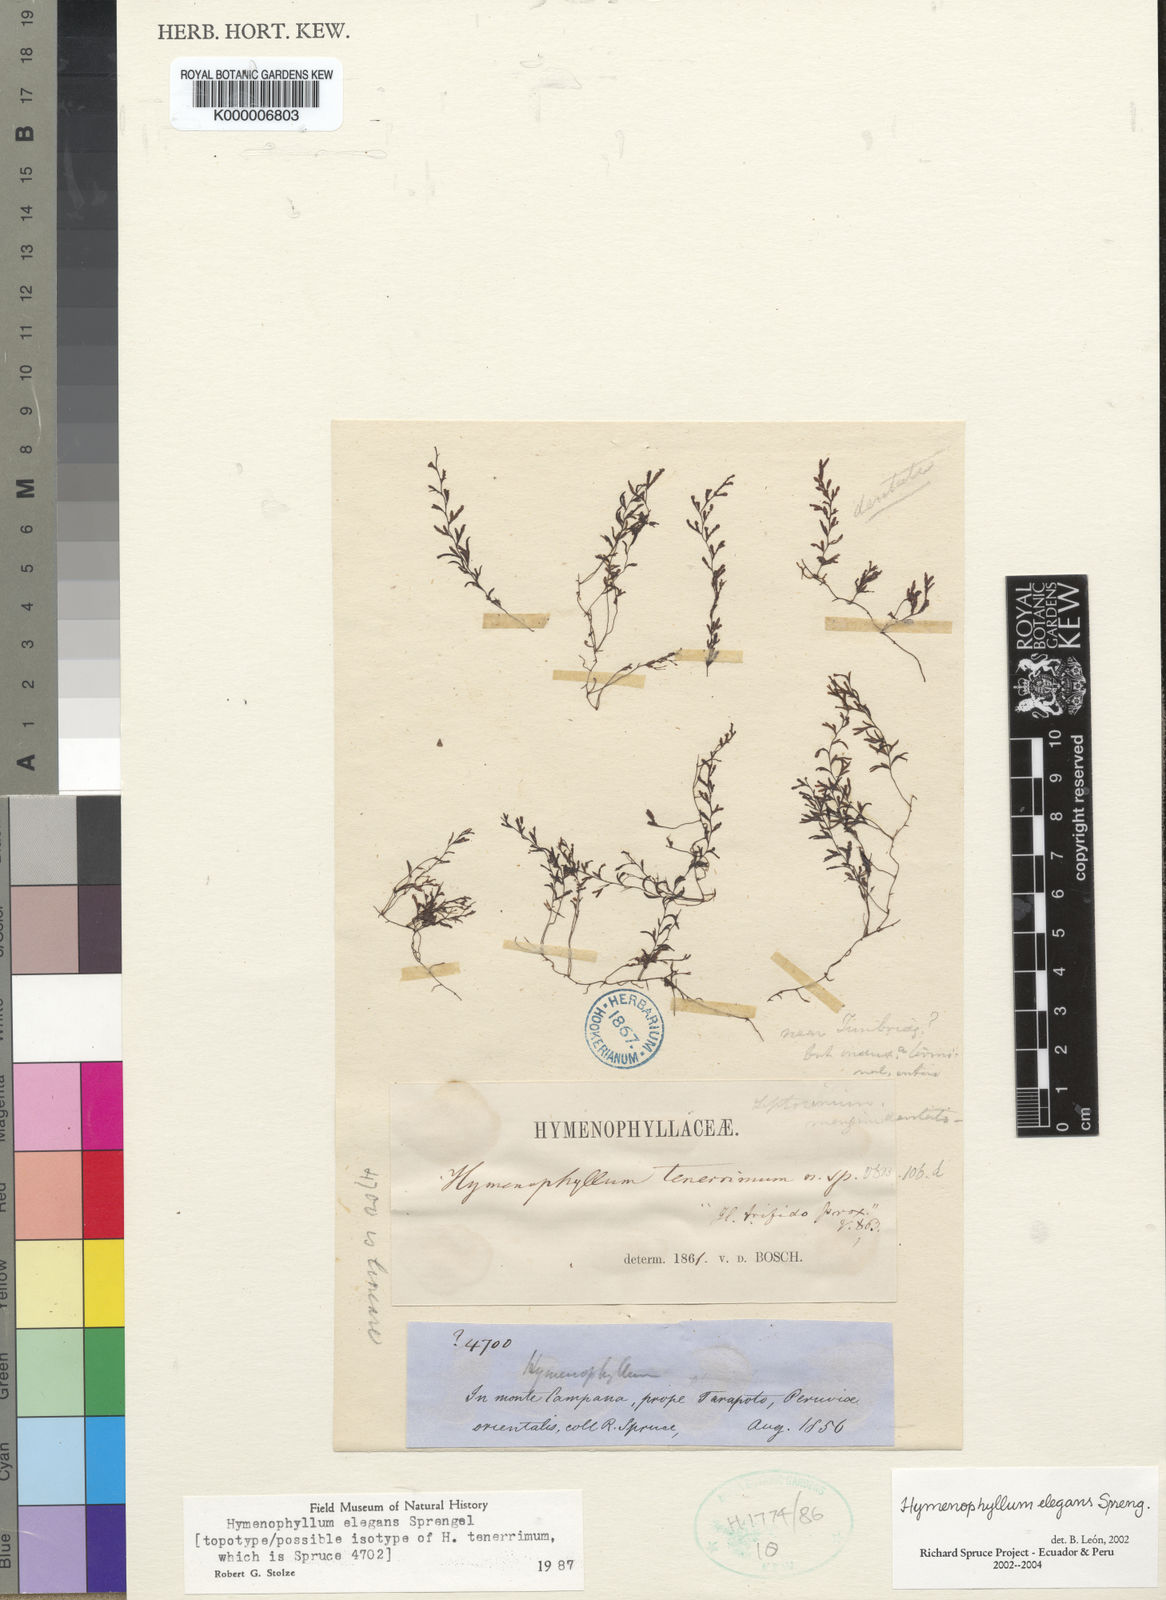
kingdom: Plantae
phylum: Tracheophyta
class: Polypodiopsida
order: Hymenophyllales
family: Hymenophyllaceae
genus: Hymenophyllum
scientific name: Hymenophyllum elegans
